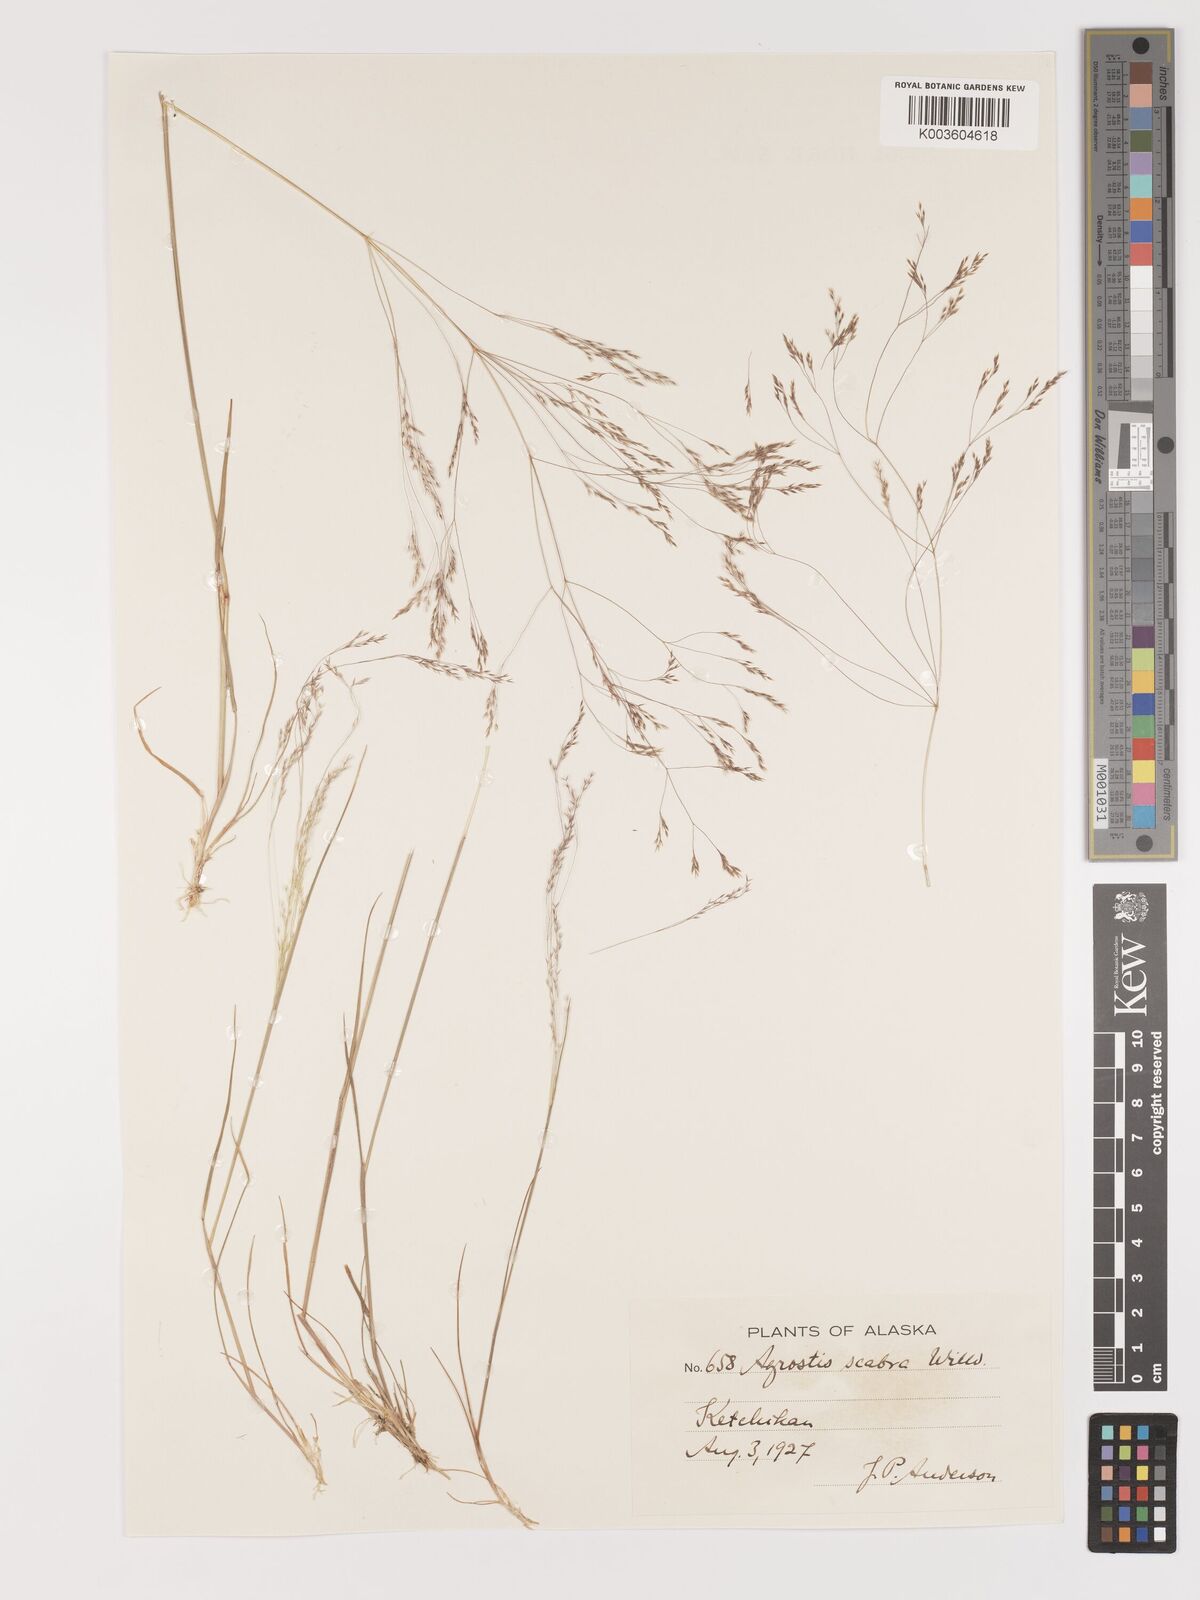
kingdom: Plantae
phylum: Tracheophyta
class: Liliopsida
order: Poales
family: Poaceae
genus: Agrostis
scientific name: Agrostis
